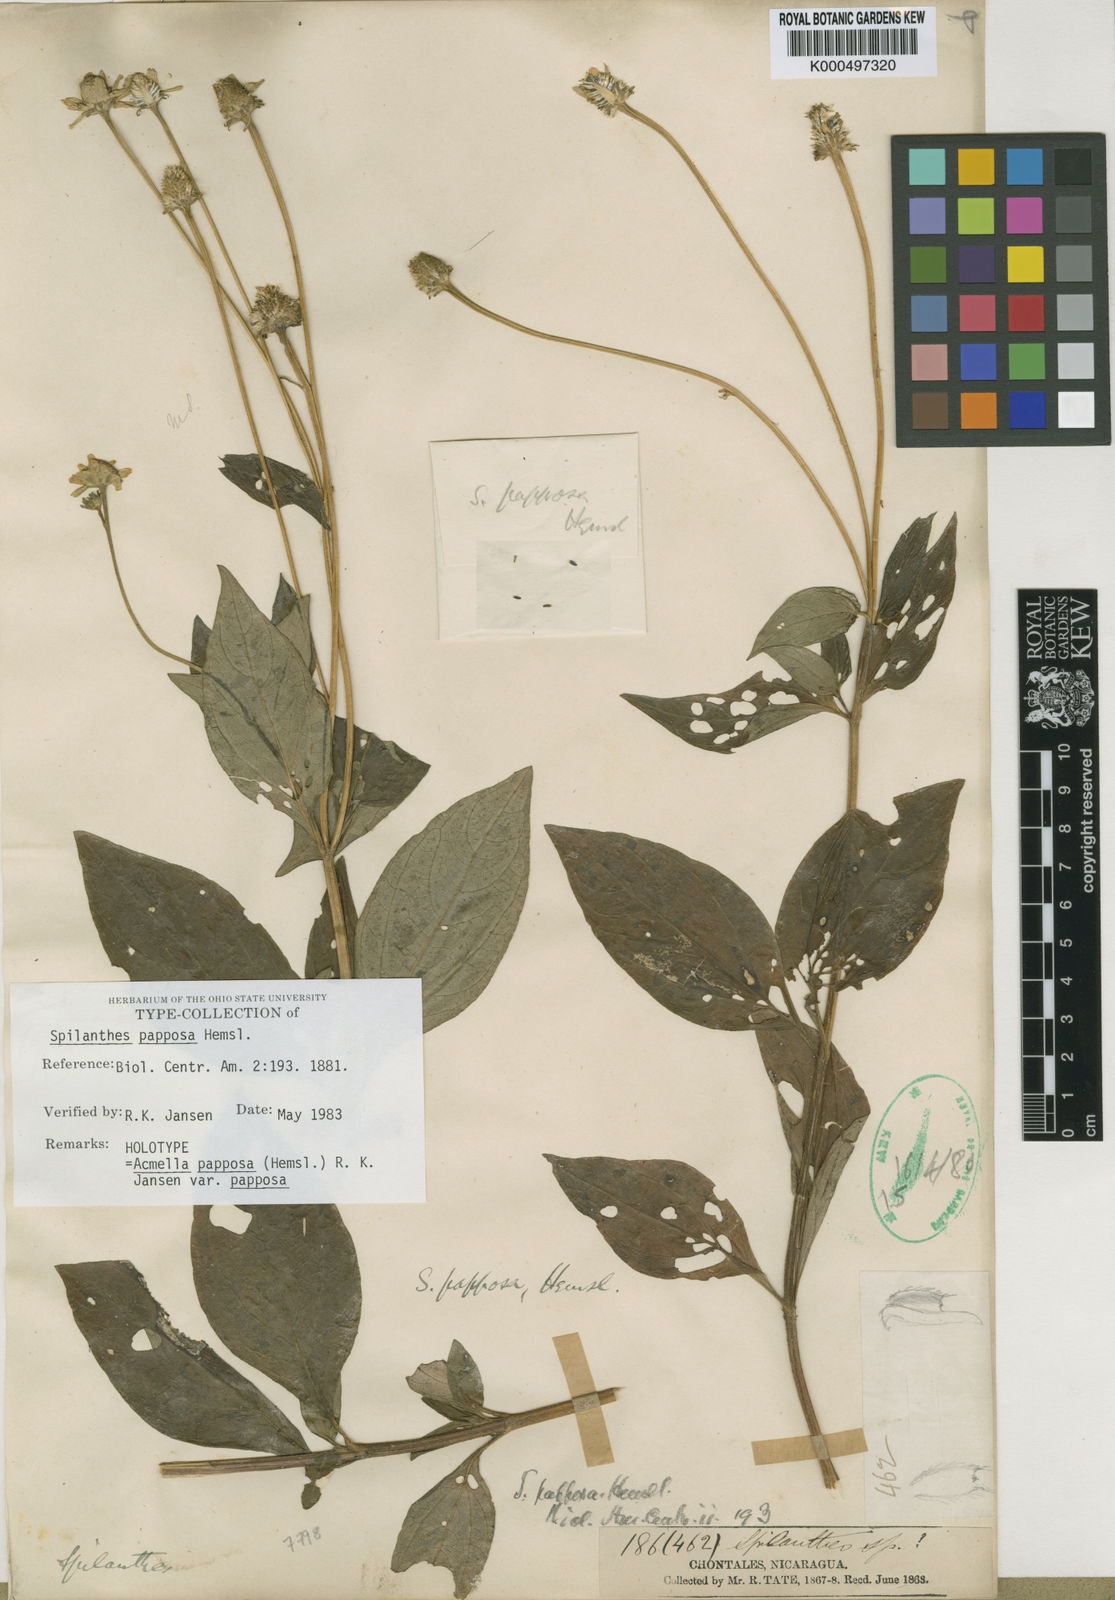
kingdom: Plantae
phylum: Tracheophyta
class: Magnoliopsida
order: Asterales
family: Asteraceae
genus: Acmella
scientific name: Acmella papposa
